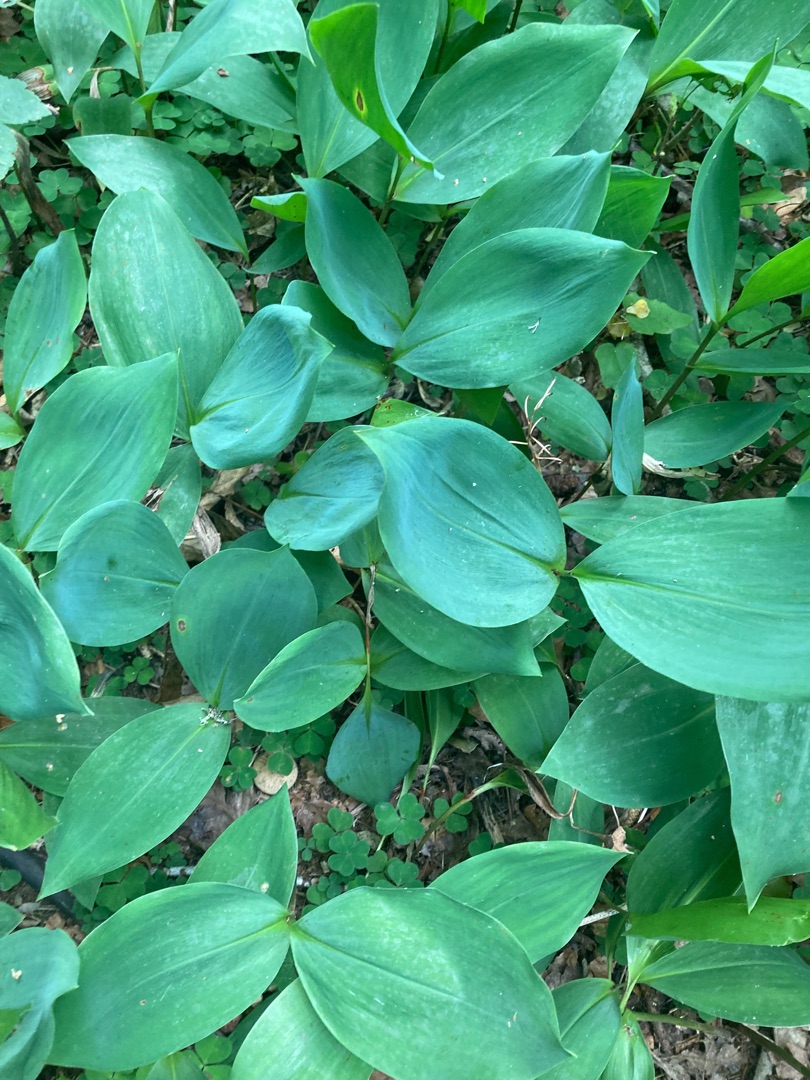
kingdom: Plantae
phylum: Tracheophyta
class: Liliopsida
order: Asparagales
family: Asparagaceae
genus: Convallaria
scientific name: Convallaria majalis
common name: Liljekonval
